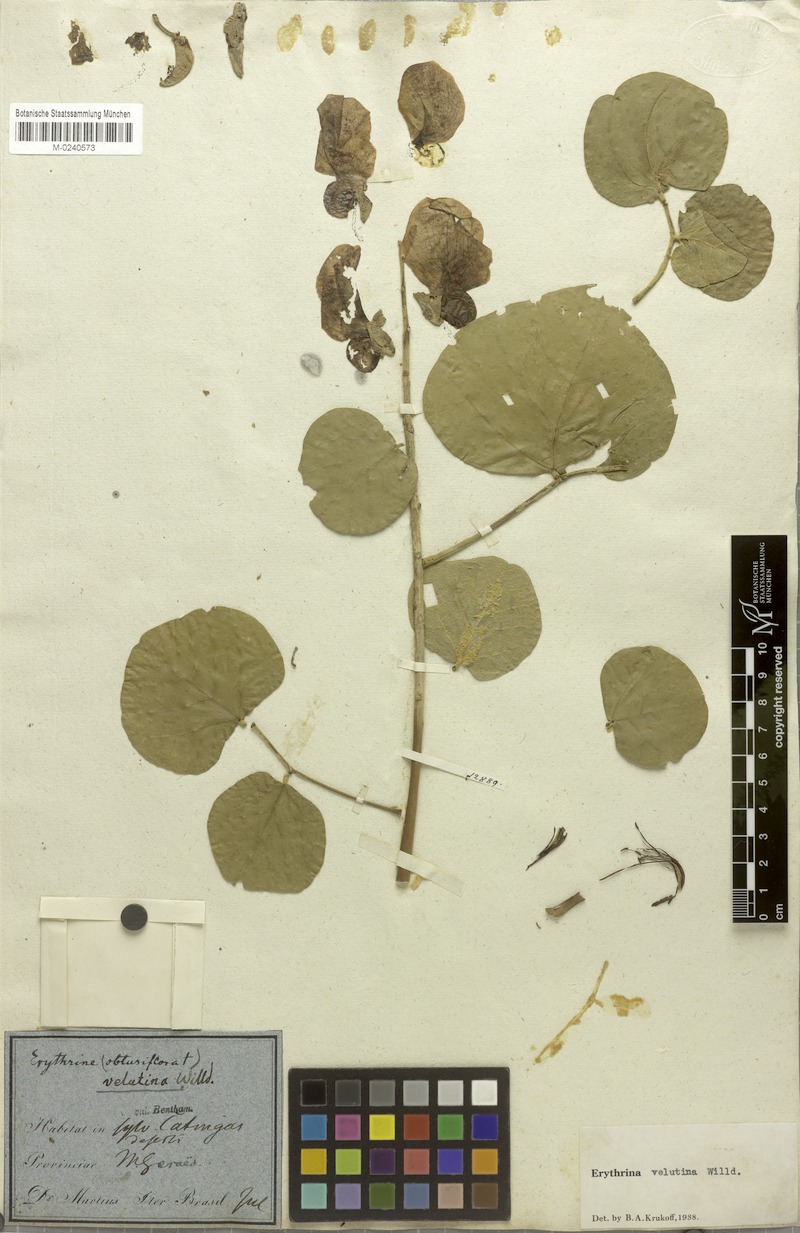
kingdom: Plantae
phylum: Tracheophyta
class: Magnoliopsida
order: Fabales
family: Fabaceae
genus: Erythrina
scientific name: Erythrina velutina
